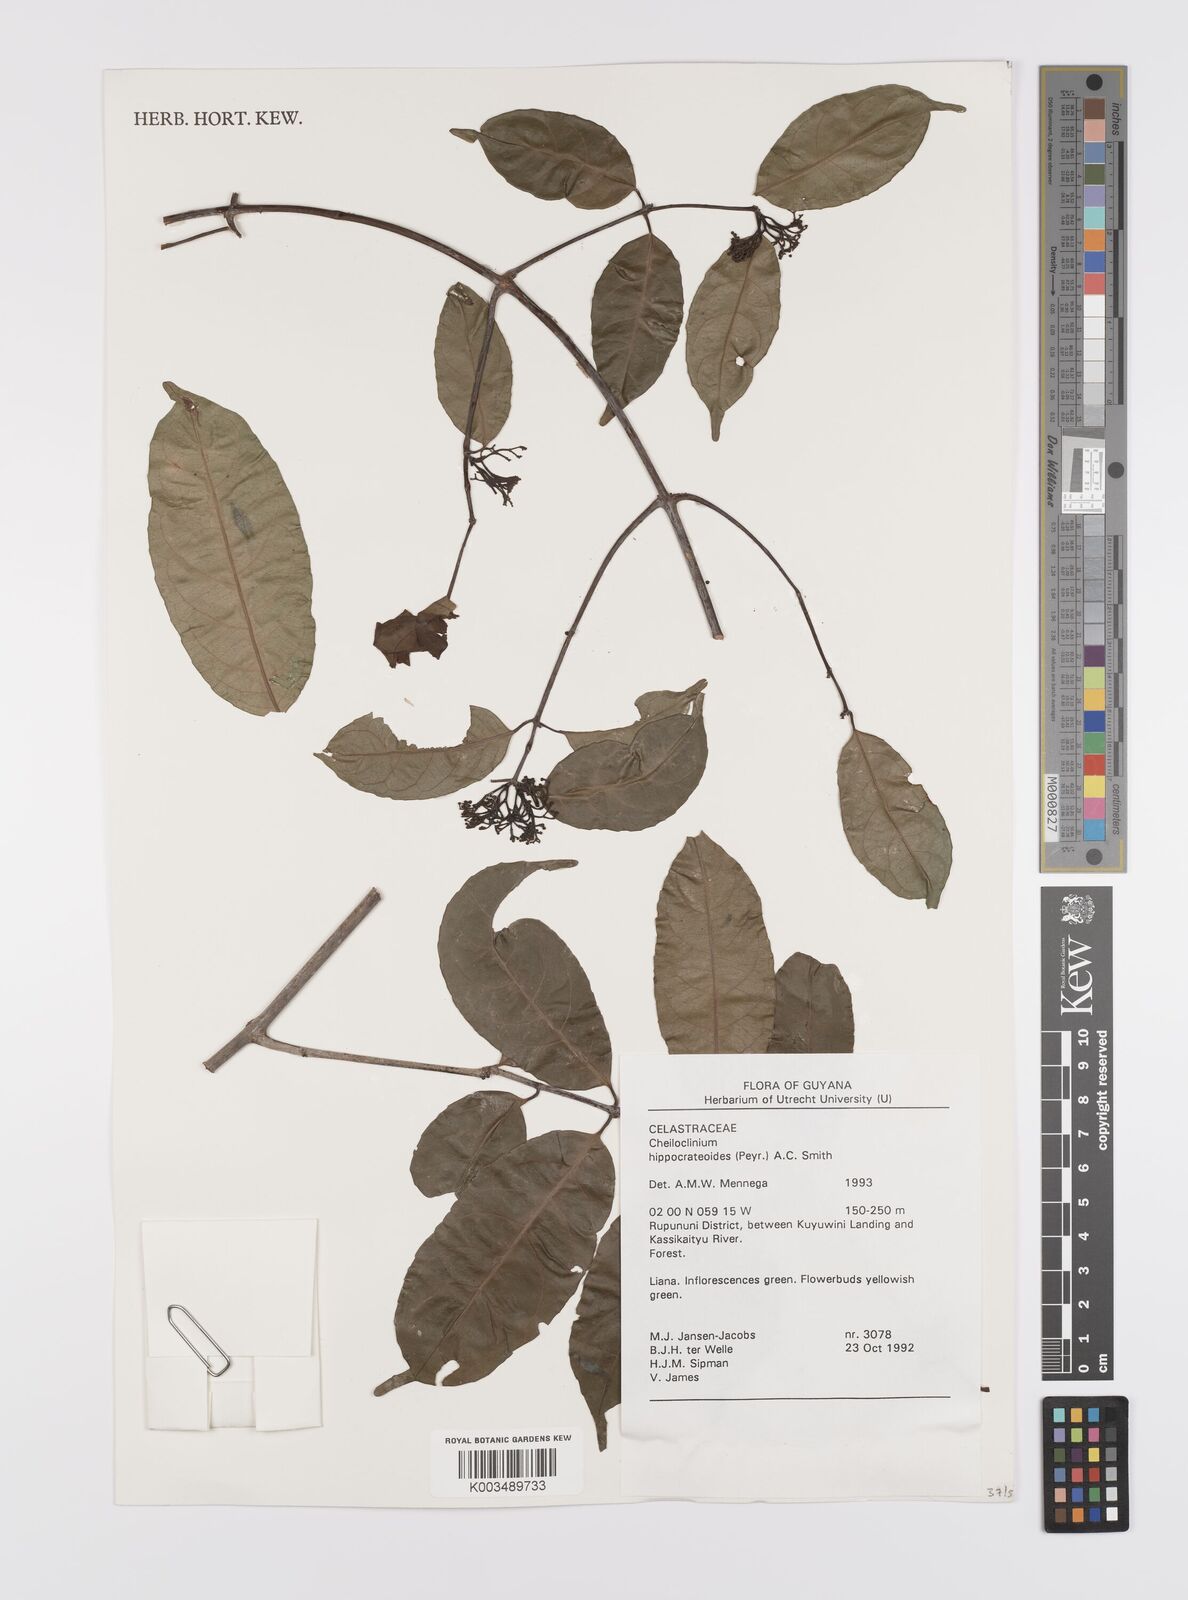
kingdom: Plantae
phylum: Tracheophyta
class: Magnoliopsida
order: Celastrales
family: Celastraceae
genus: Cheiloclinium
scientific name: Cheiloclinium hippocrateoides
